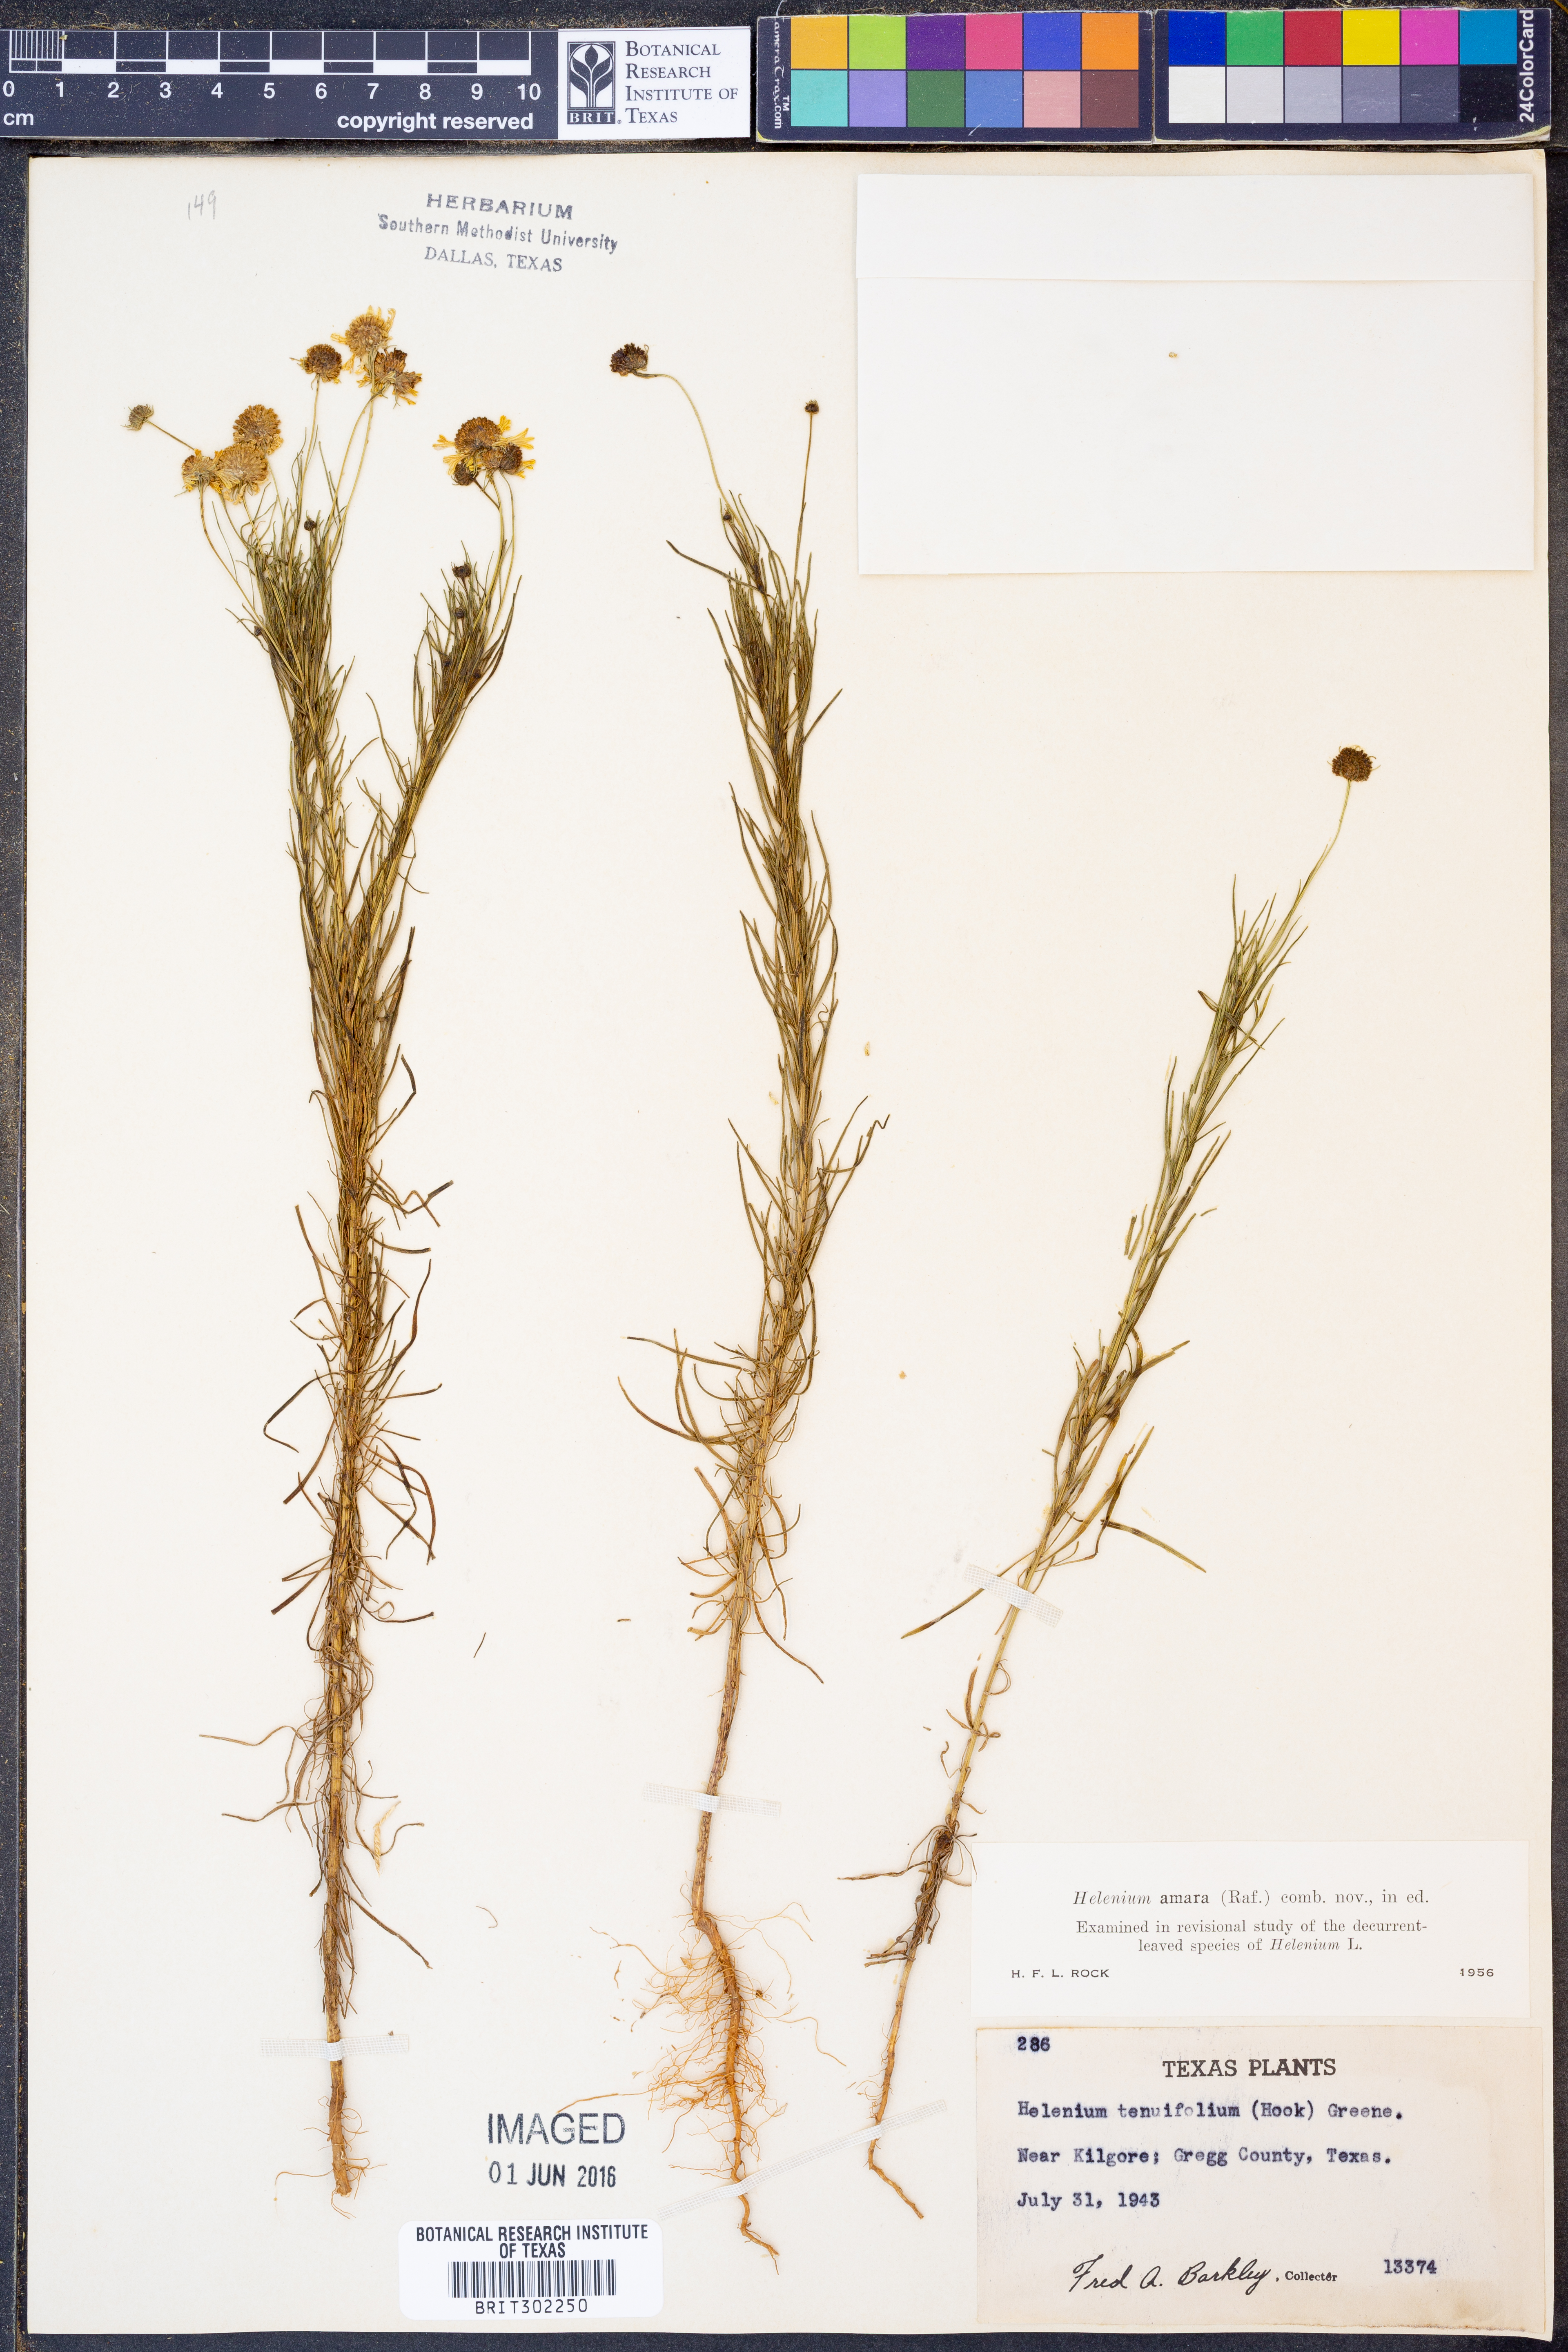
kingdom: Plantae
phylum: Tracheophyta
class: Magnoliopsida
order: Asterales
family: Asteraceae
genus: Helenium
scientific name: Helenium amarum
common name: Bitter sneezeweed
